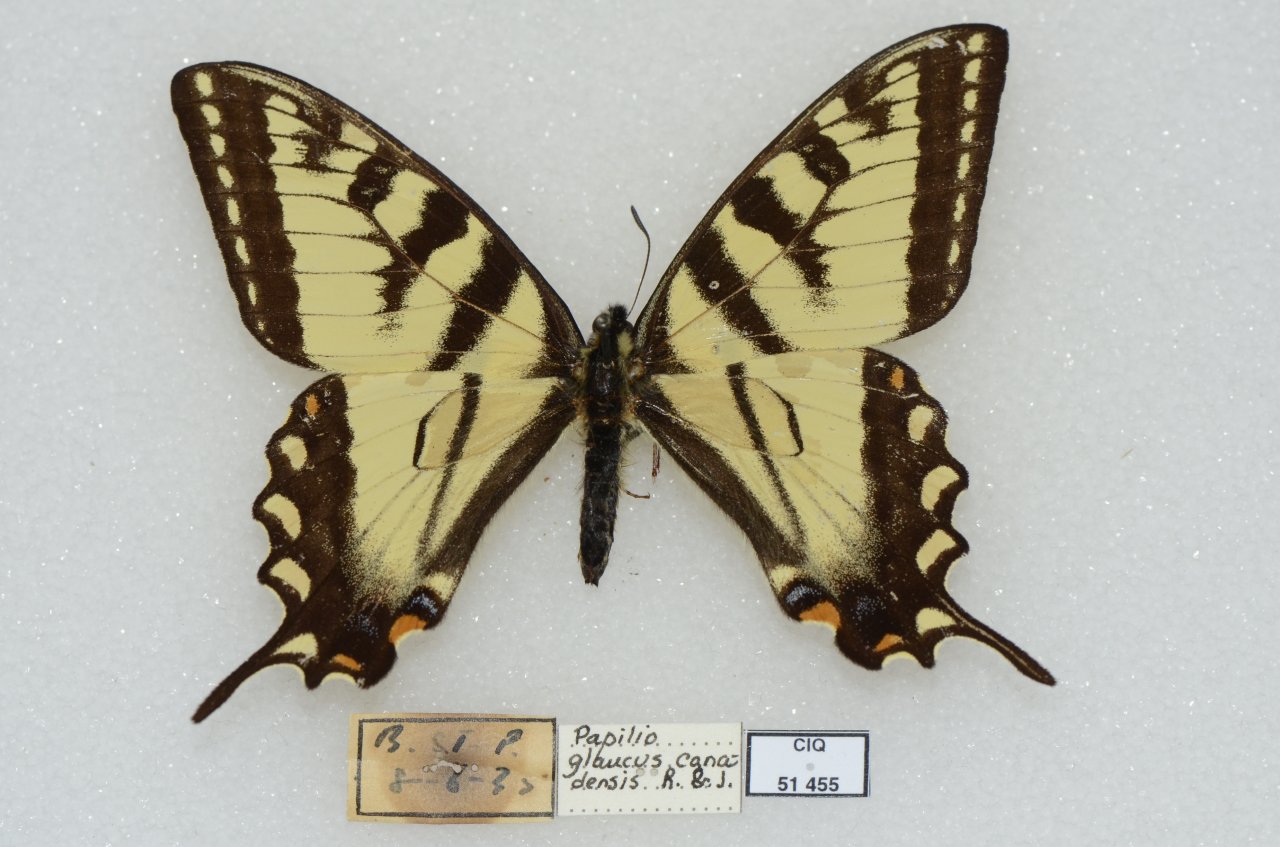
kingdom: Animalia
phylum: Arthropoda
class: Insecta
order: Lepidoptera
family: Papilionidae
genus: Pterourus
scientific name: Pterourus canadensis
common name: Canadian Tiger Swallowtail
